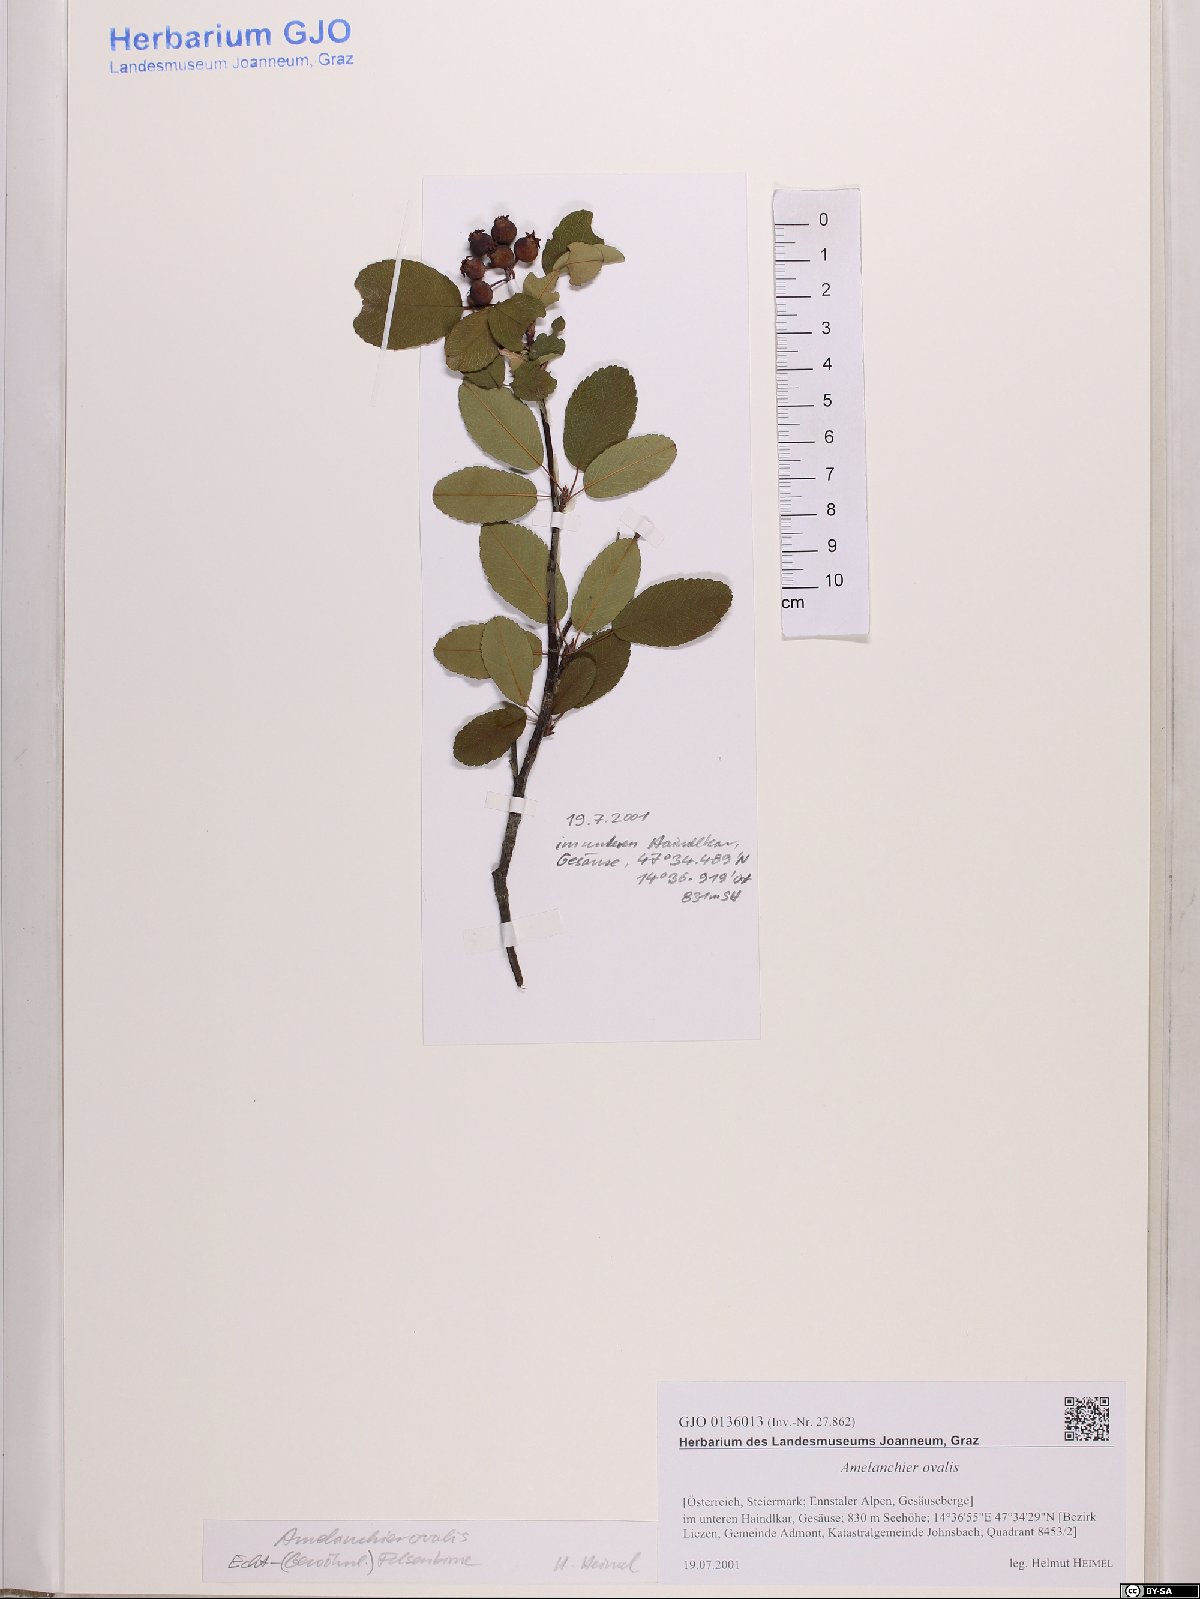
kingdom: Plantae
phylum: Tracheophyta
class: Magnoliopsida
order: Rosales
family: Rosaceae
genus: Amelanchier
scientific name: Amelanchier ovalis
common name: Serviceberry
